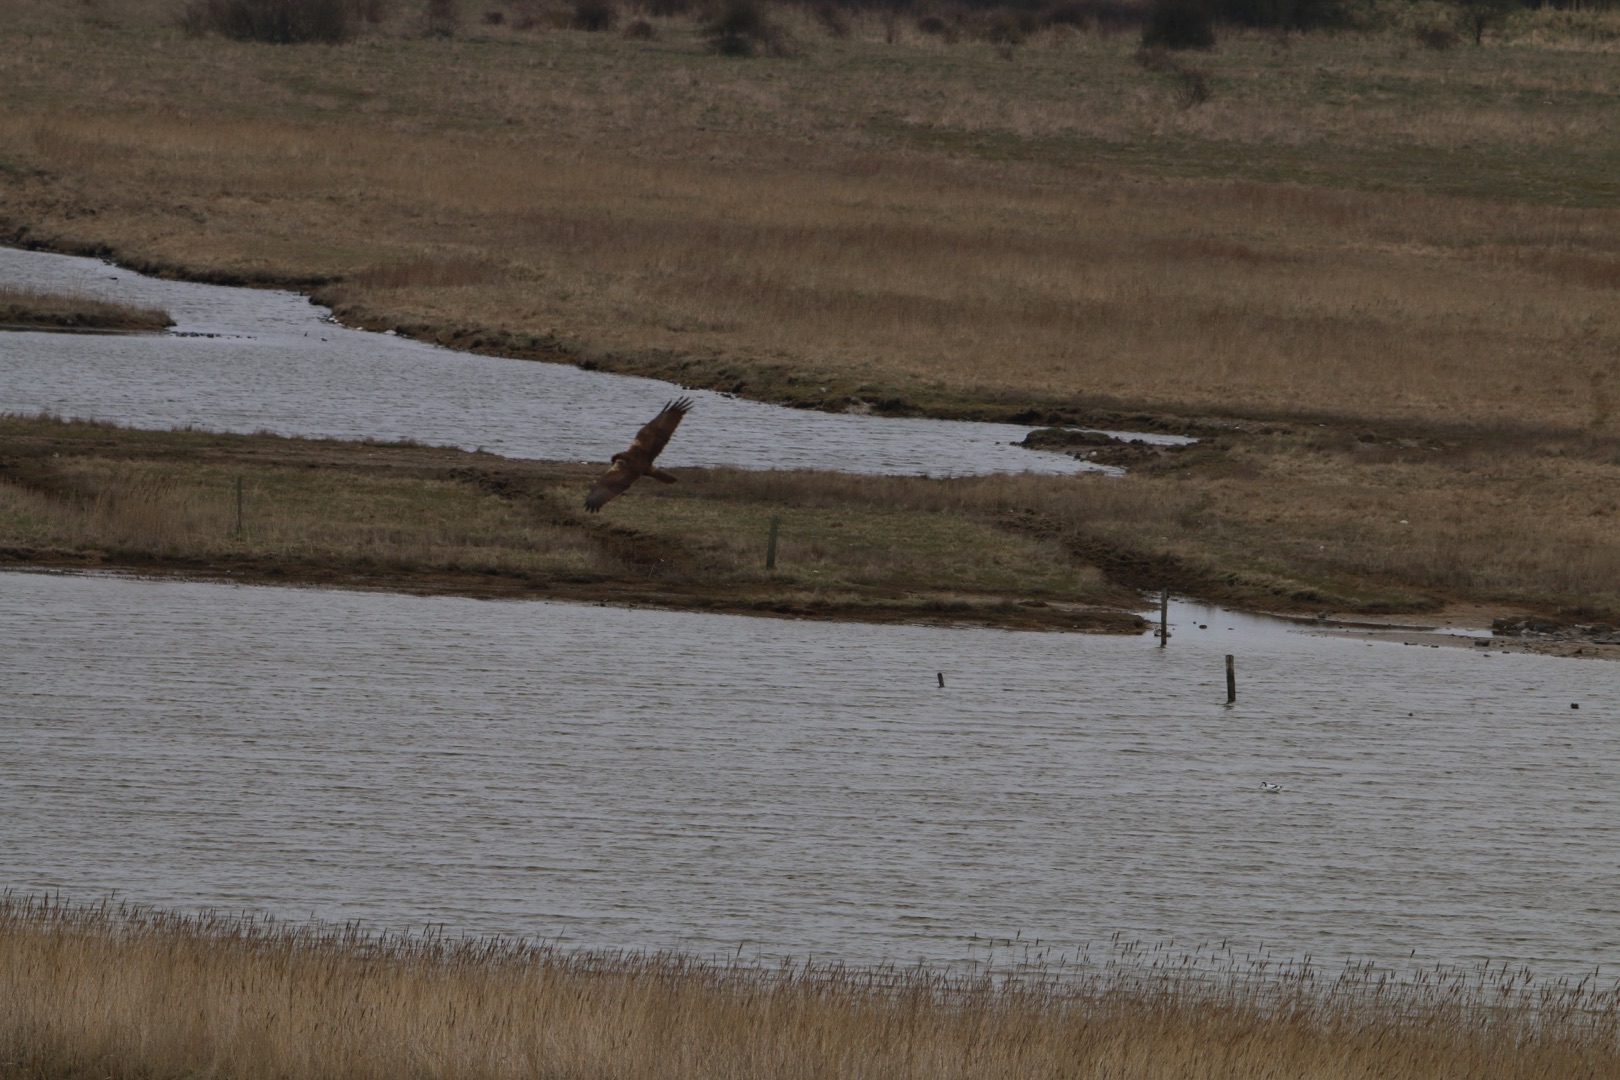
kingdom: Animalia
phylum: Chordata
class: Aves
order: Accipitriformes
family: Accipitridae
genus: Circus
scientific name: Circus aeruginosus
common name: Rørhøg
